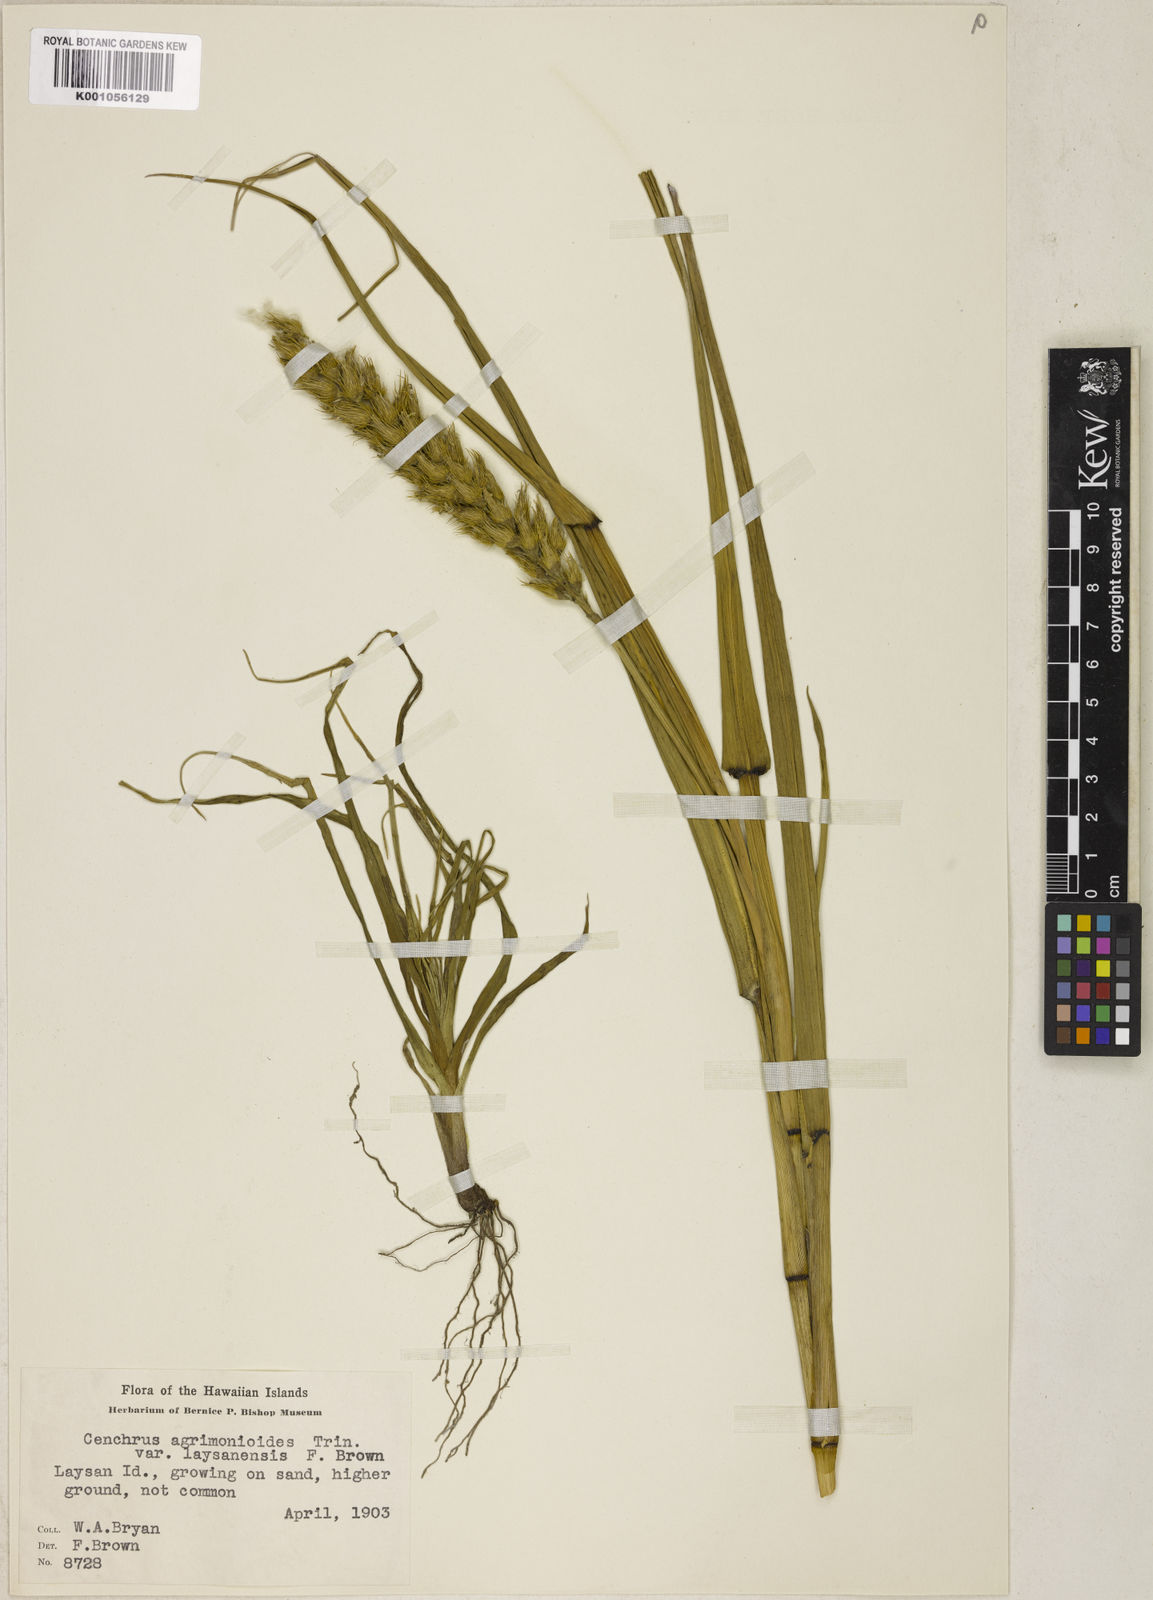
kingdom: Plantae
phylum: Tracheophyta
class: Liliopsida
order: Poales
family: Poaceae
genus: Cenchrus
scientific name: Cenchrus agrimonioides
